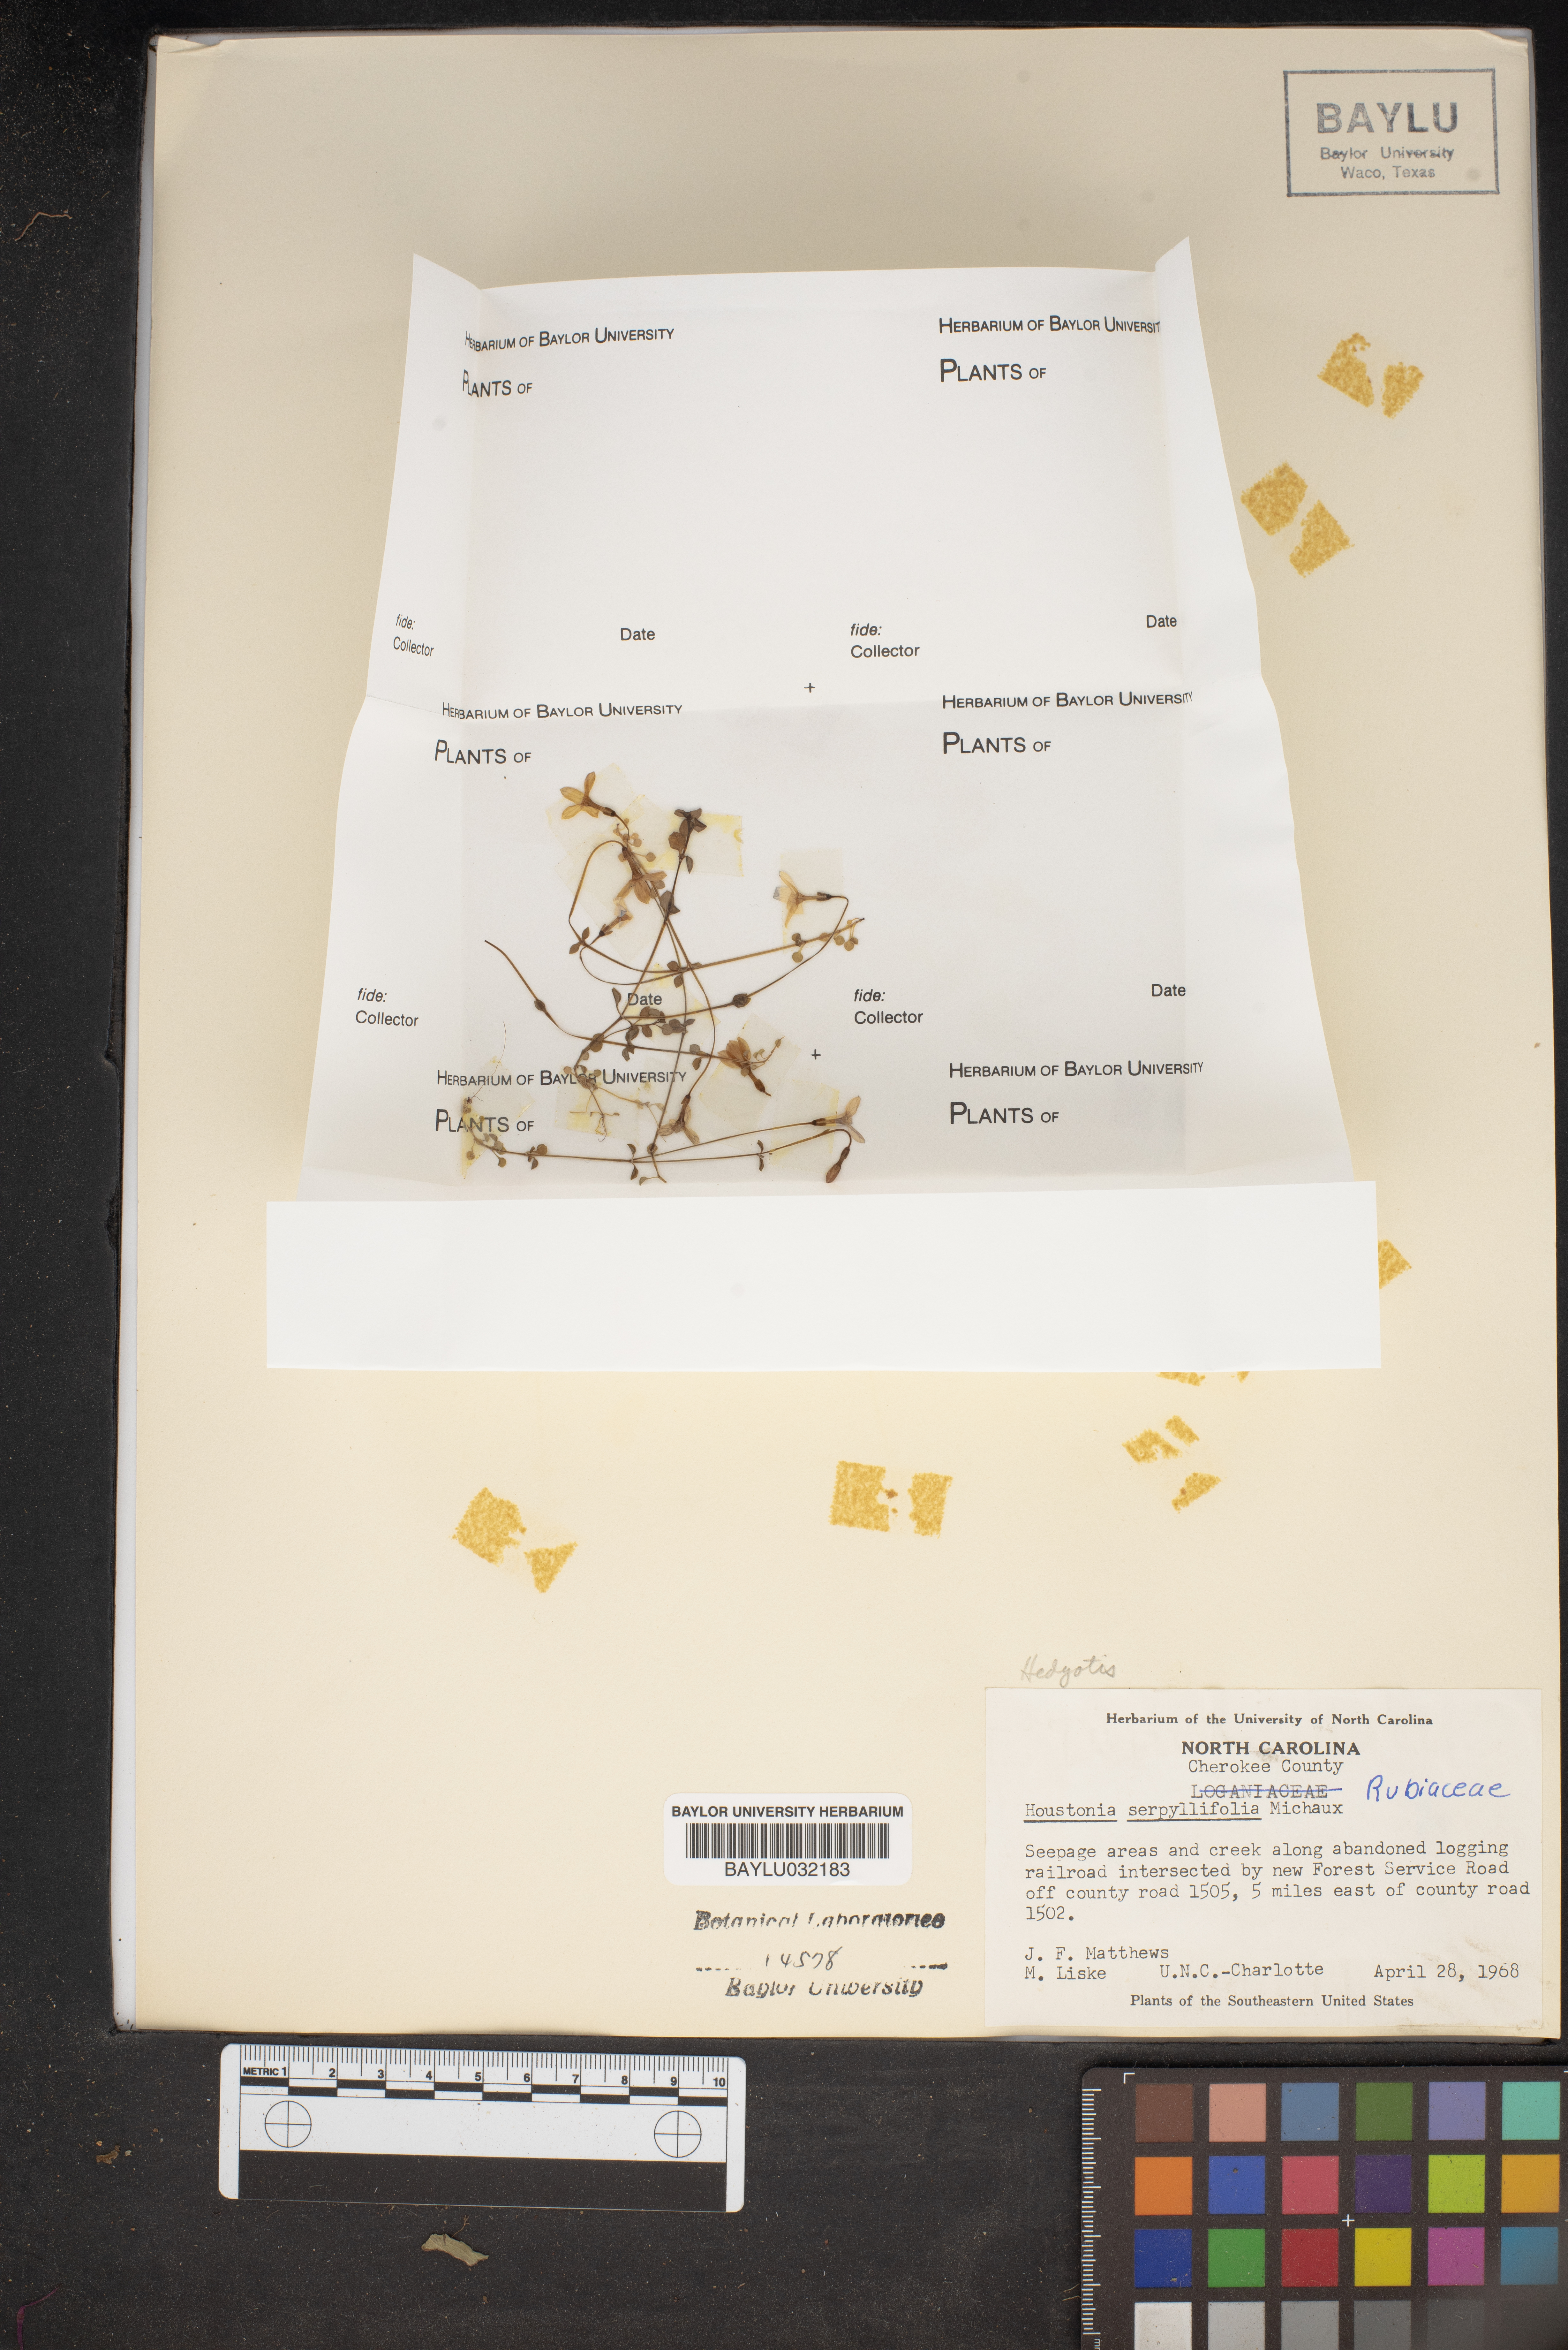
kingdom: Plantae
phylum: Tracheophyta
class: Magnoliopsida
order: Gentianales
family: Rubiaceae
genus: Houstonia
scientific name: Houstonia serpyllifolia
